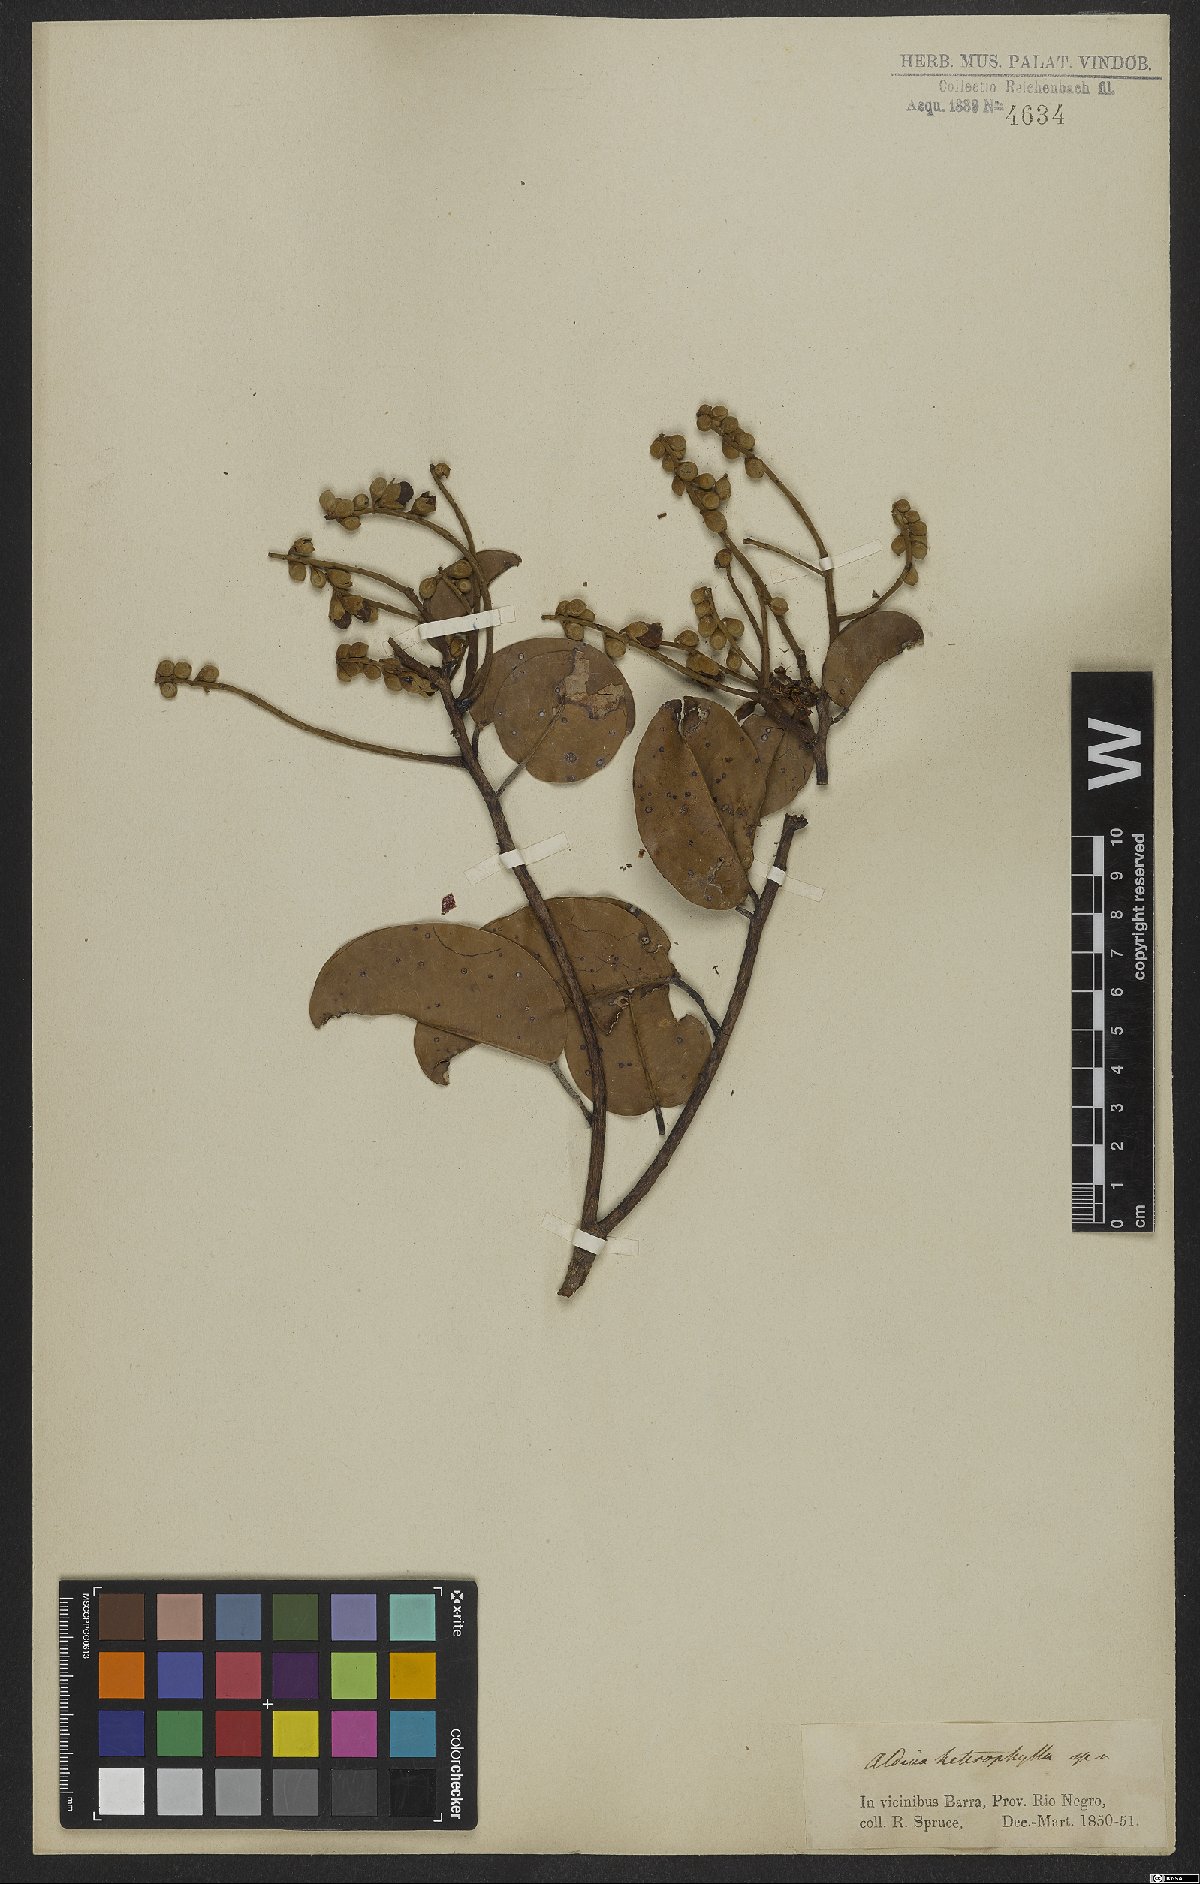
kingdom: Plantae
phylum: Tracheophyta
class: Magnoliopsida
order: Fabales
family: Fabaceae
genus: Aldina
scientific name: Aldina heterophylla
